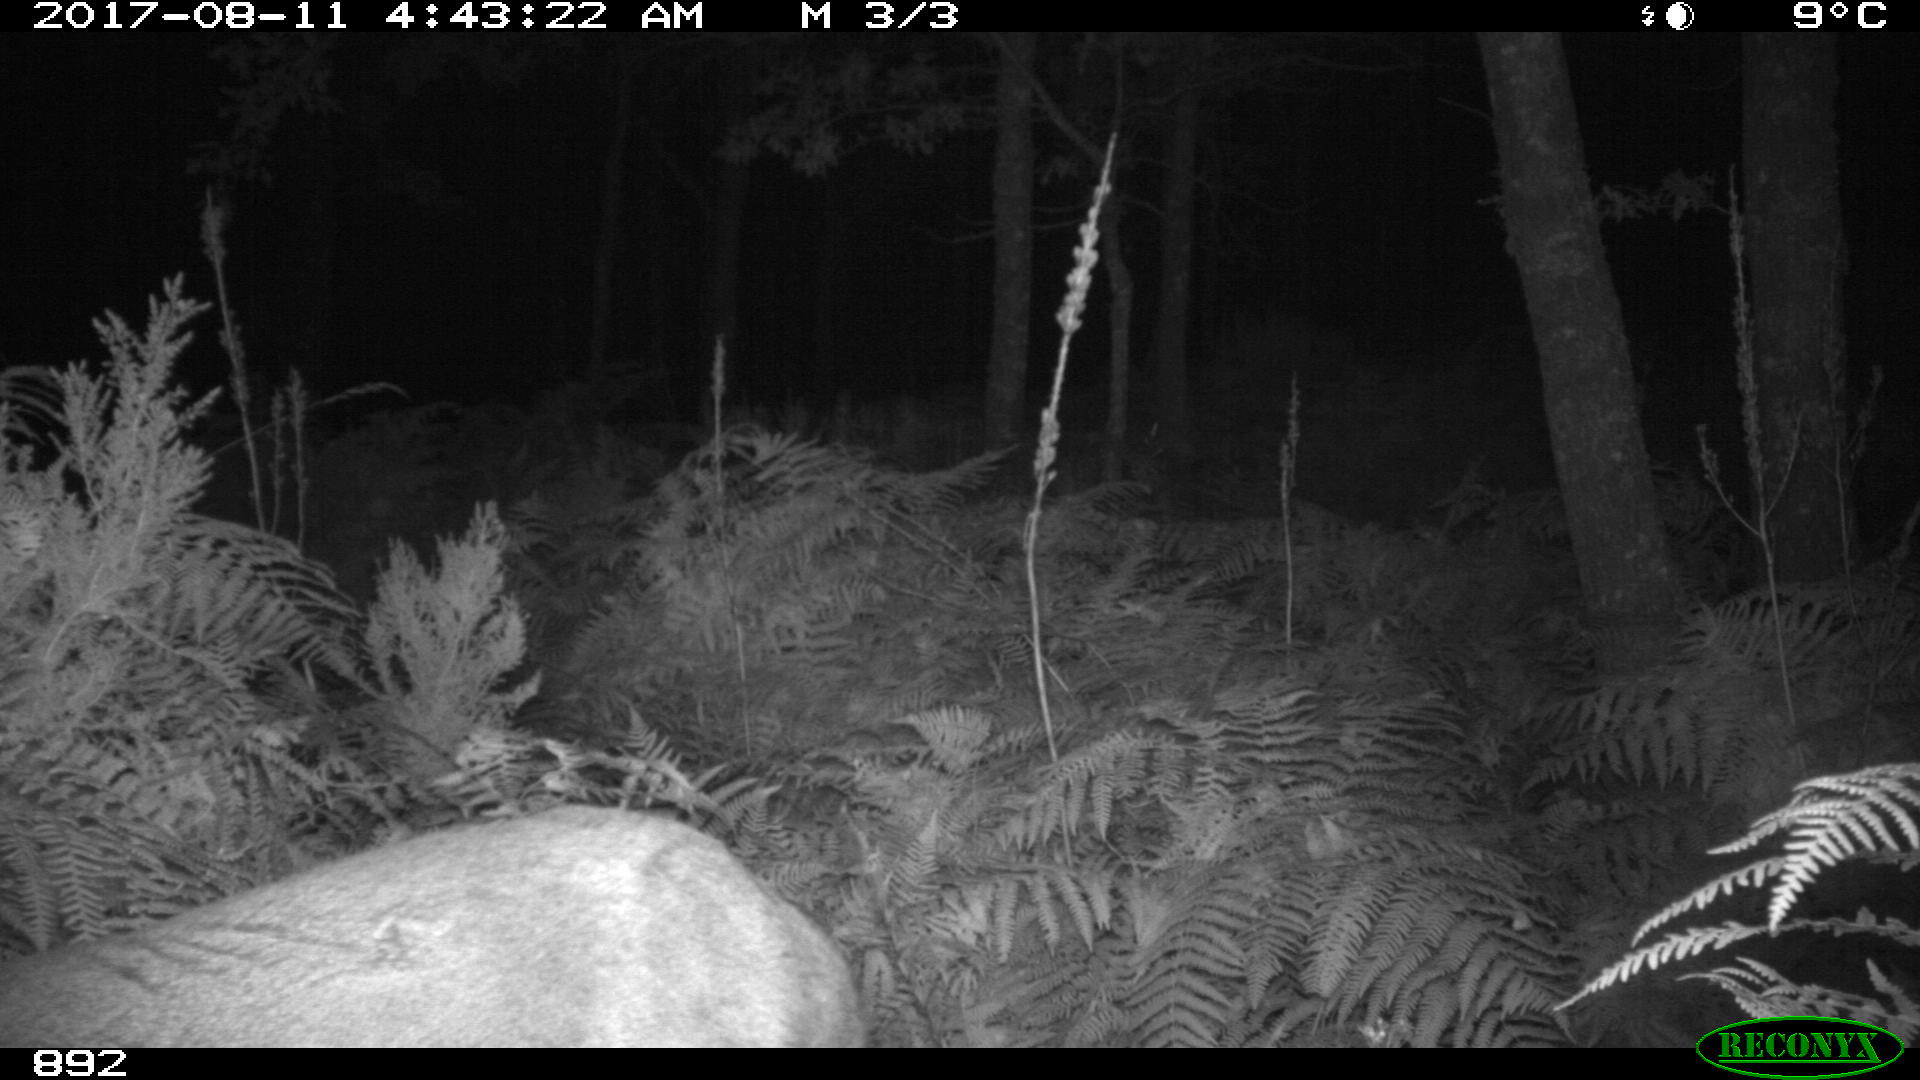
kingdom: Animalia
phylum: Chordata
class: Mammalia
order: Artiodactyla
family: Cervidae
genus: Capreolus
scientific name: Capreolus capreolus
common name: Western roe deer
